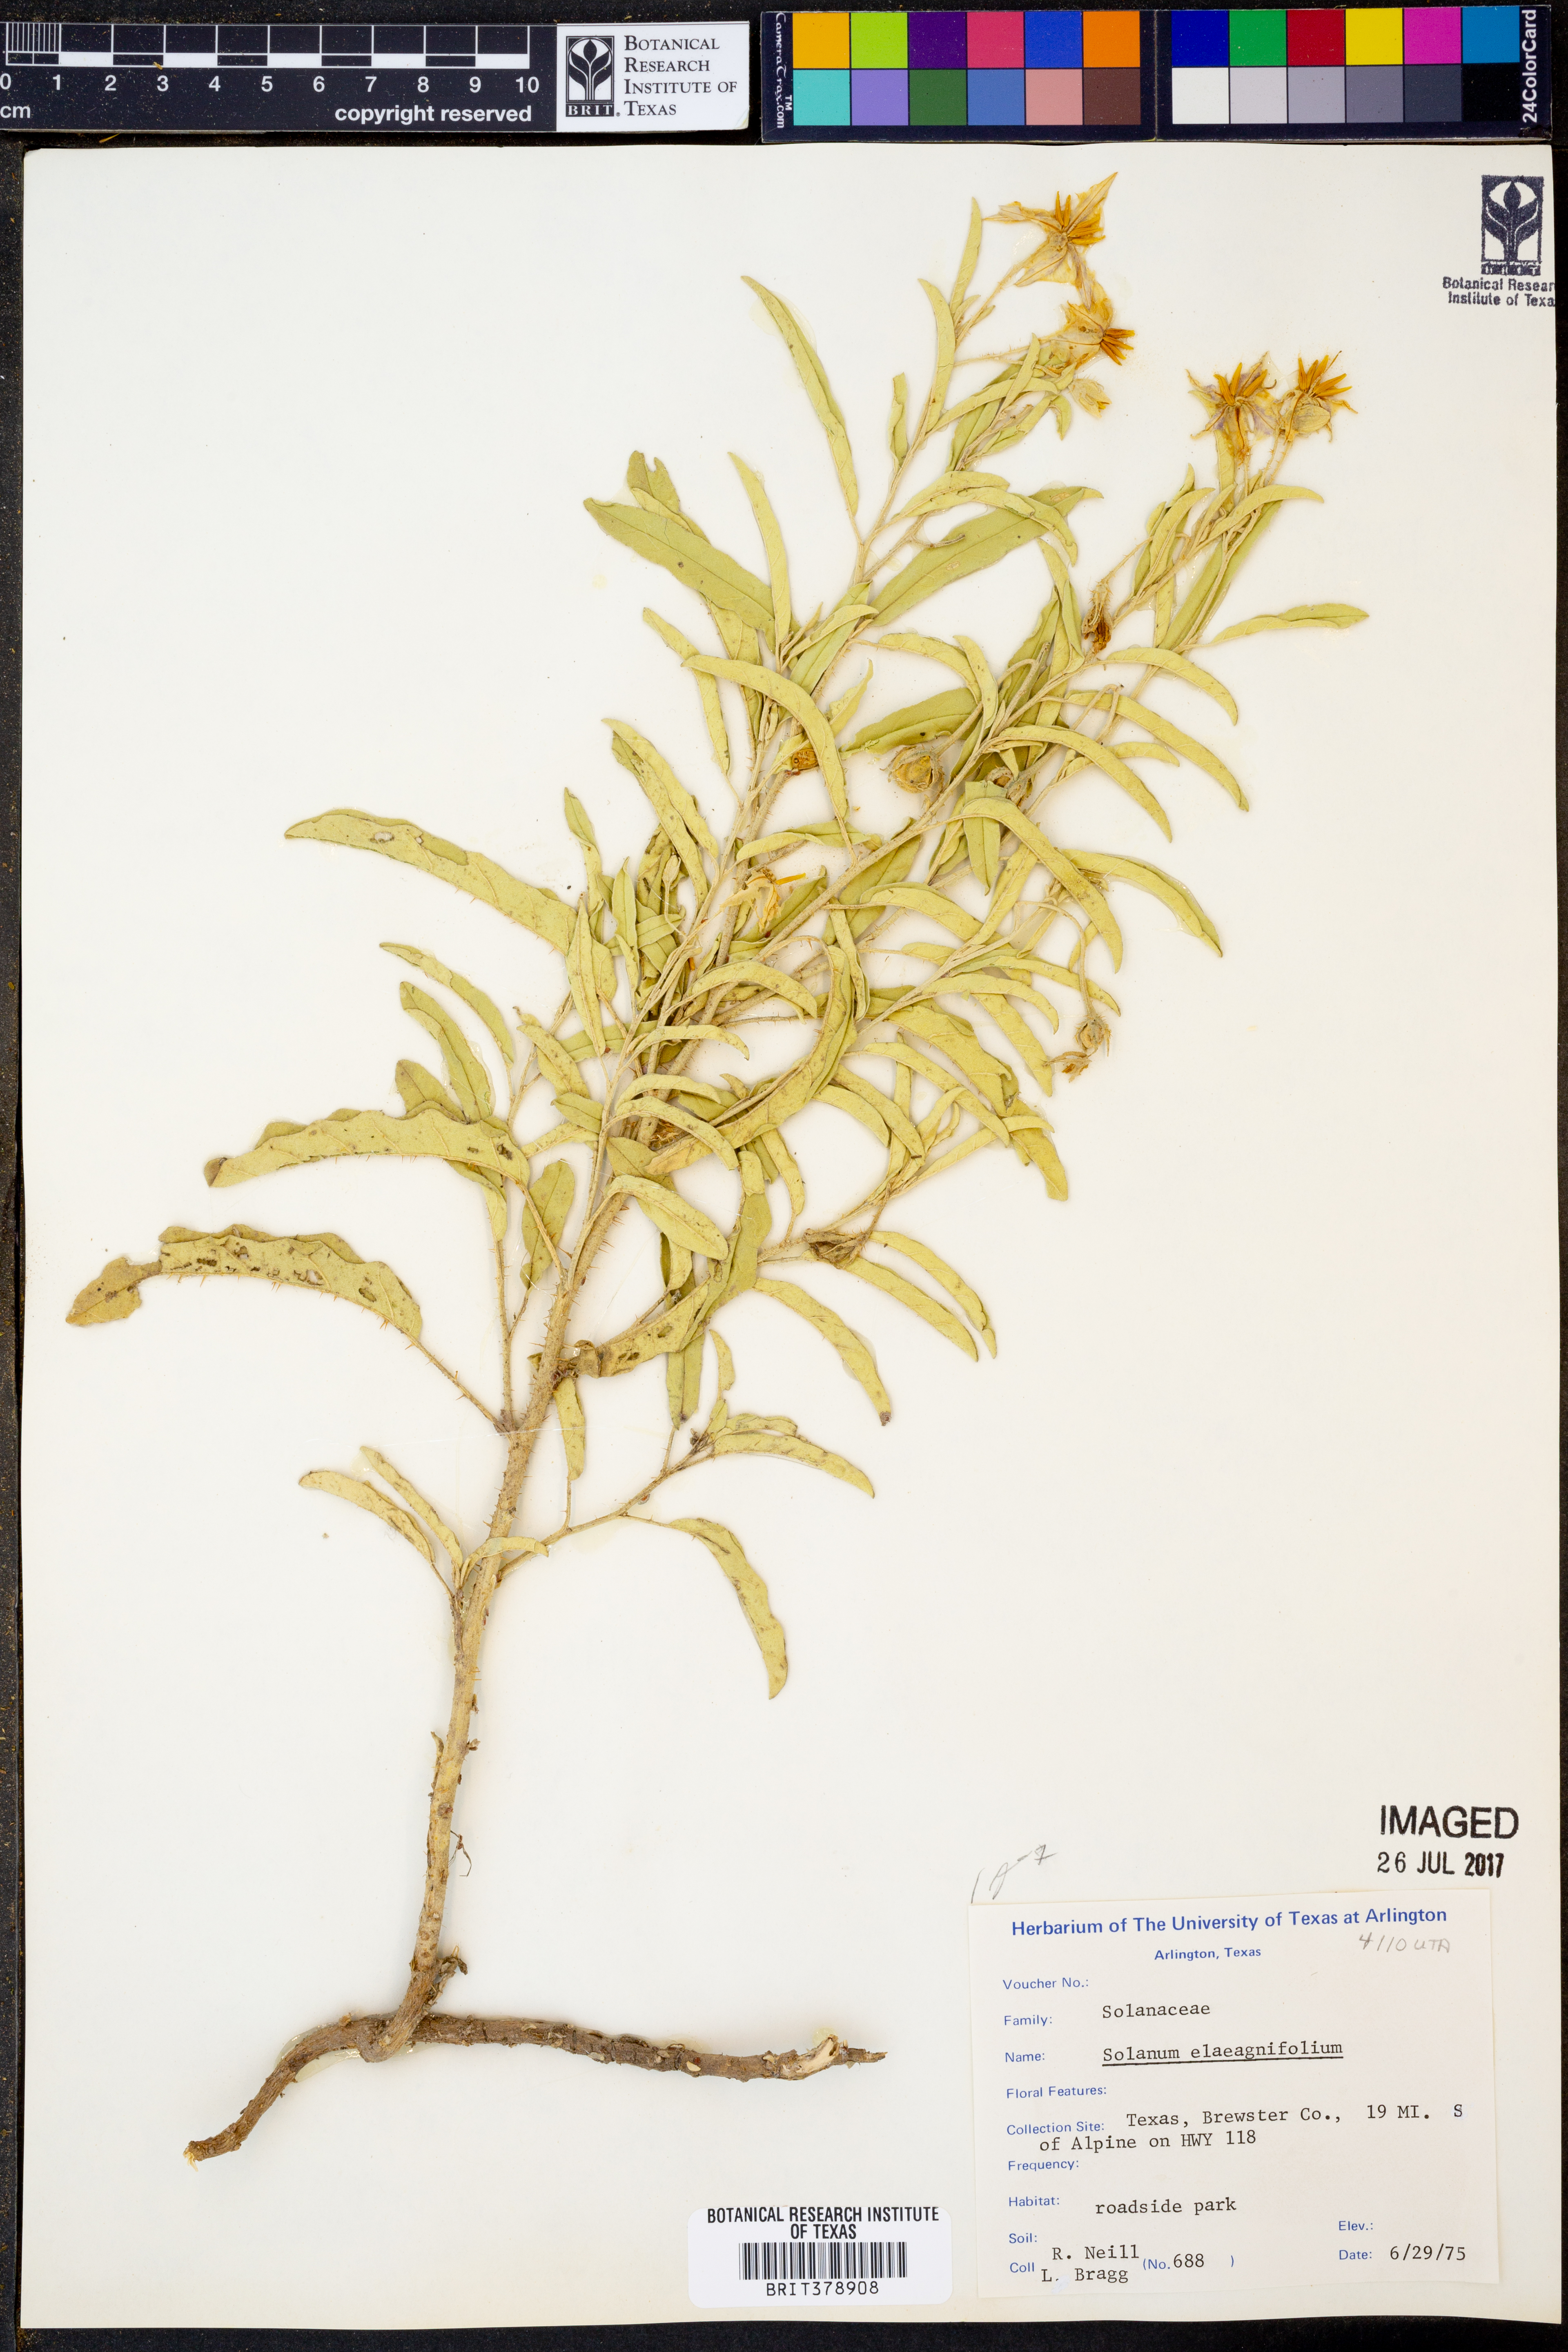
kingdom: Plantae
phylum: Tracheophyta
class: Magnoliopsida
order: Solanales
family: Solanaceae
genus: Solanum
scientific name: Solanum elaeagnifolium
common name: Silverleaf nightshade
